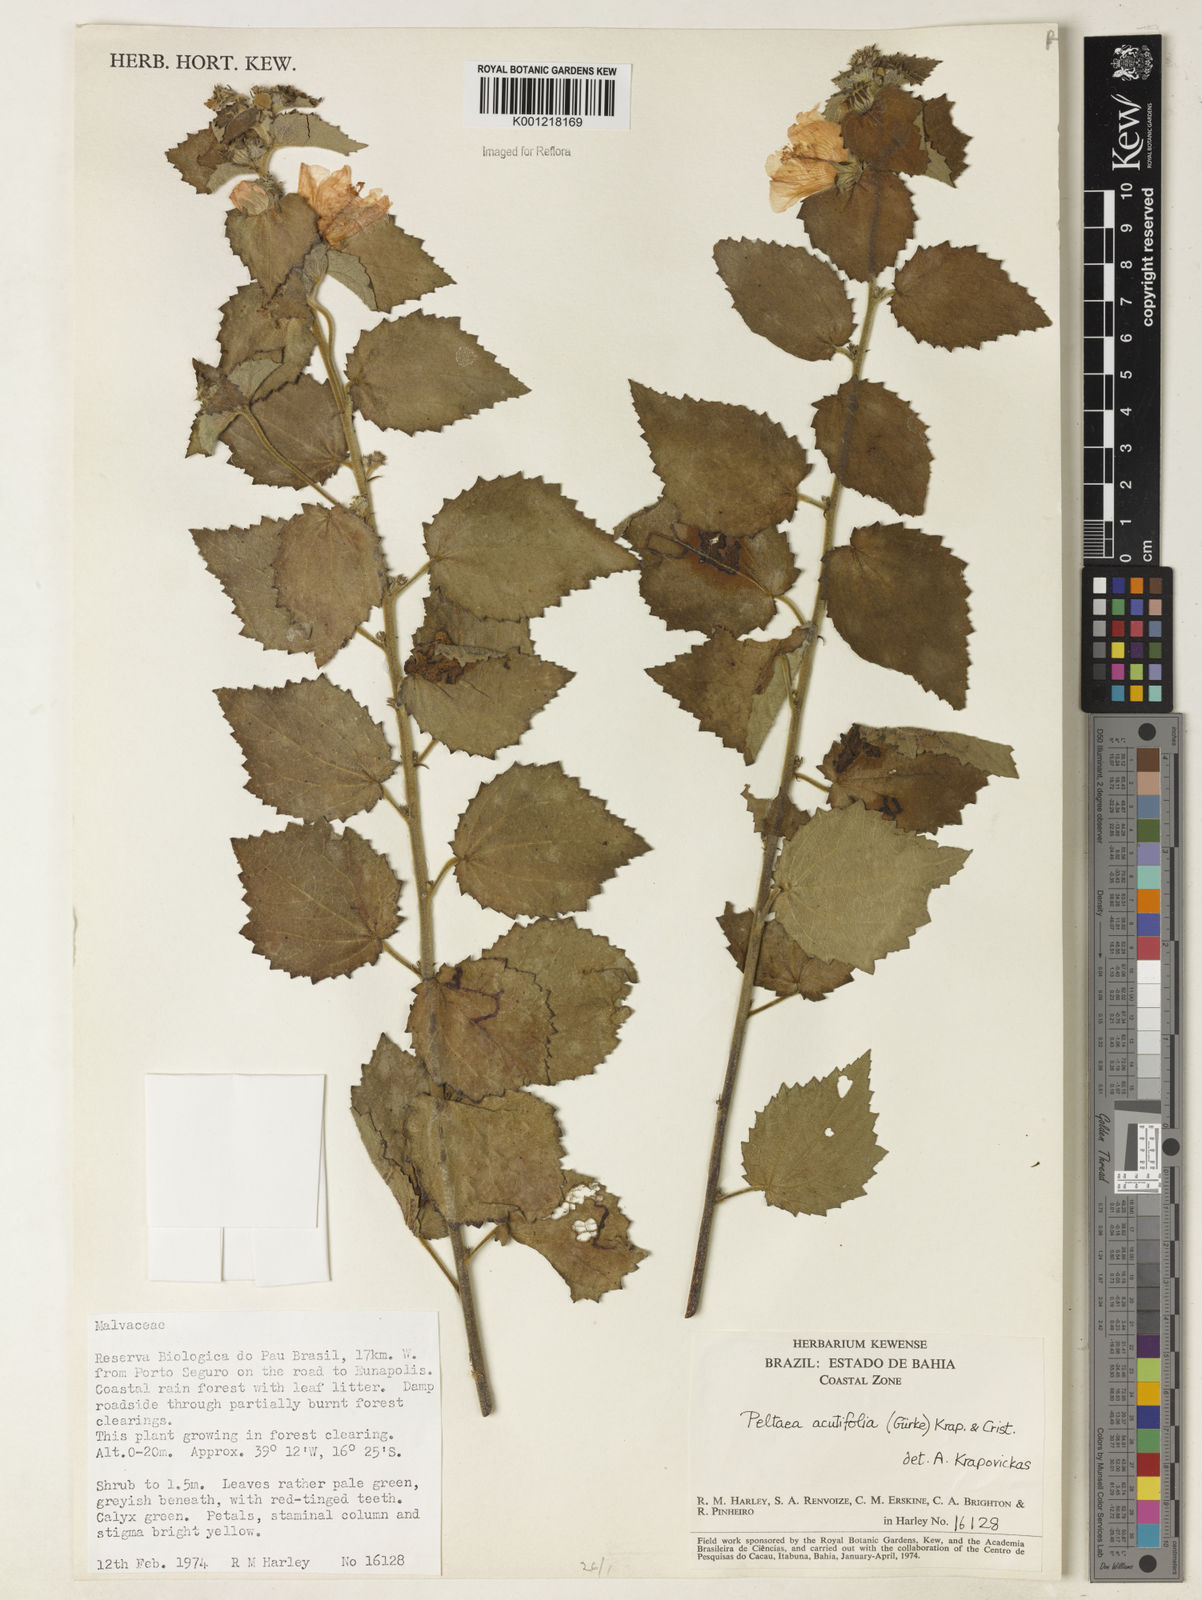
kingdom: Plantae
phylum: Tracheophyta
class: Magnoliopsida
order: Malvales
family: Malvaceae
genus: Peltaea
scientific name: Peltaea
